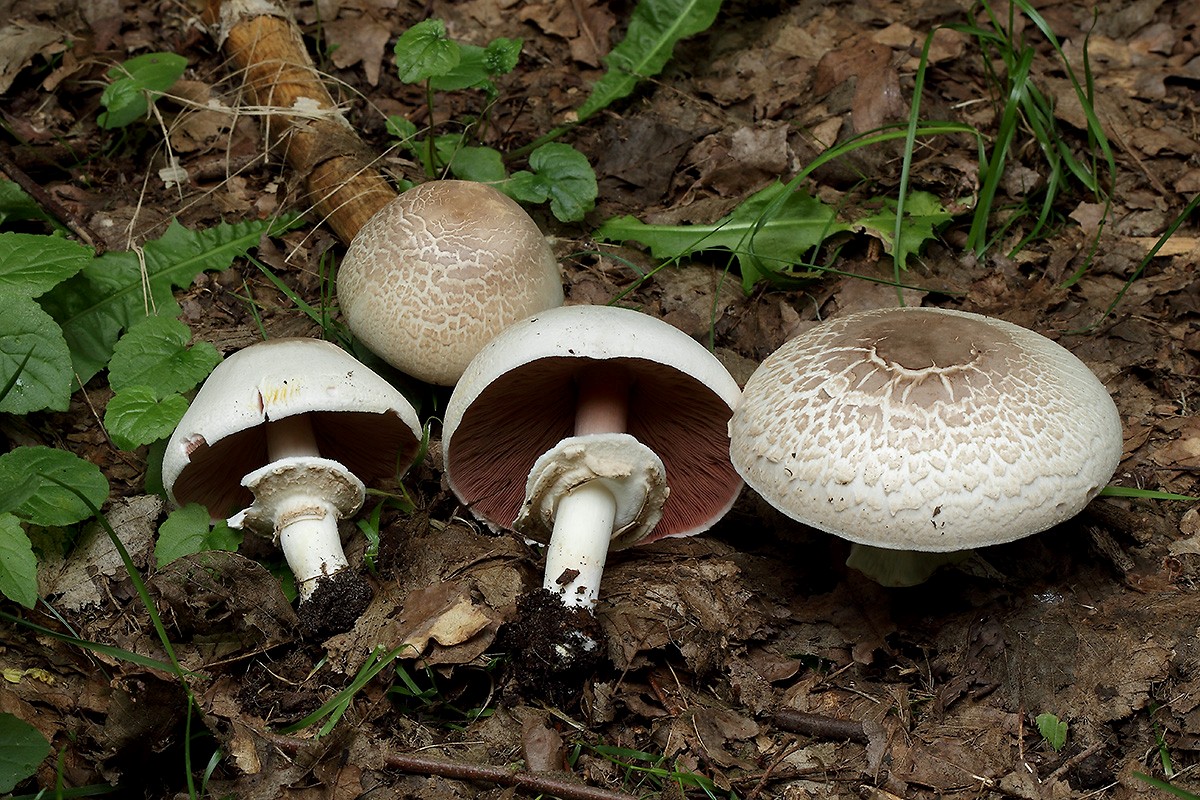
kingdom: Fungi
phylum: Basidiomycota
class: Agaricomycetes
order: Agaricales
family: Agaricaceae
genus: Agaricus
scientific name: Agaricus xanthodermus
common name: karbol-champignon
